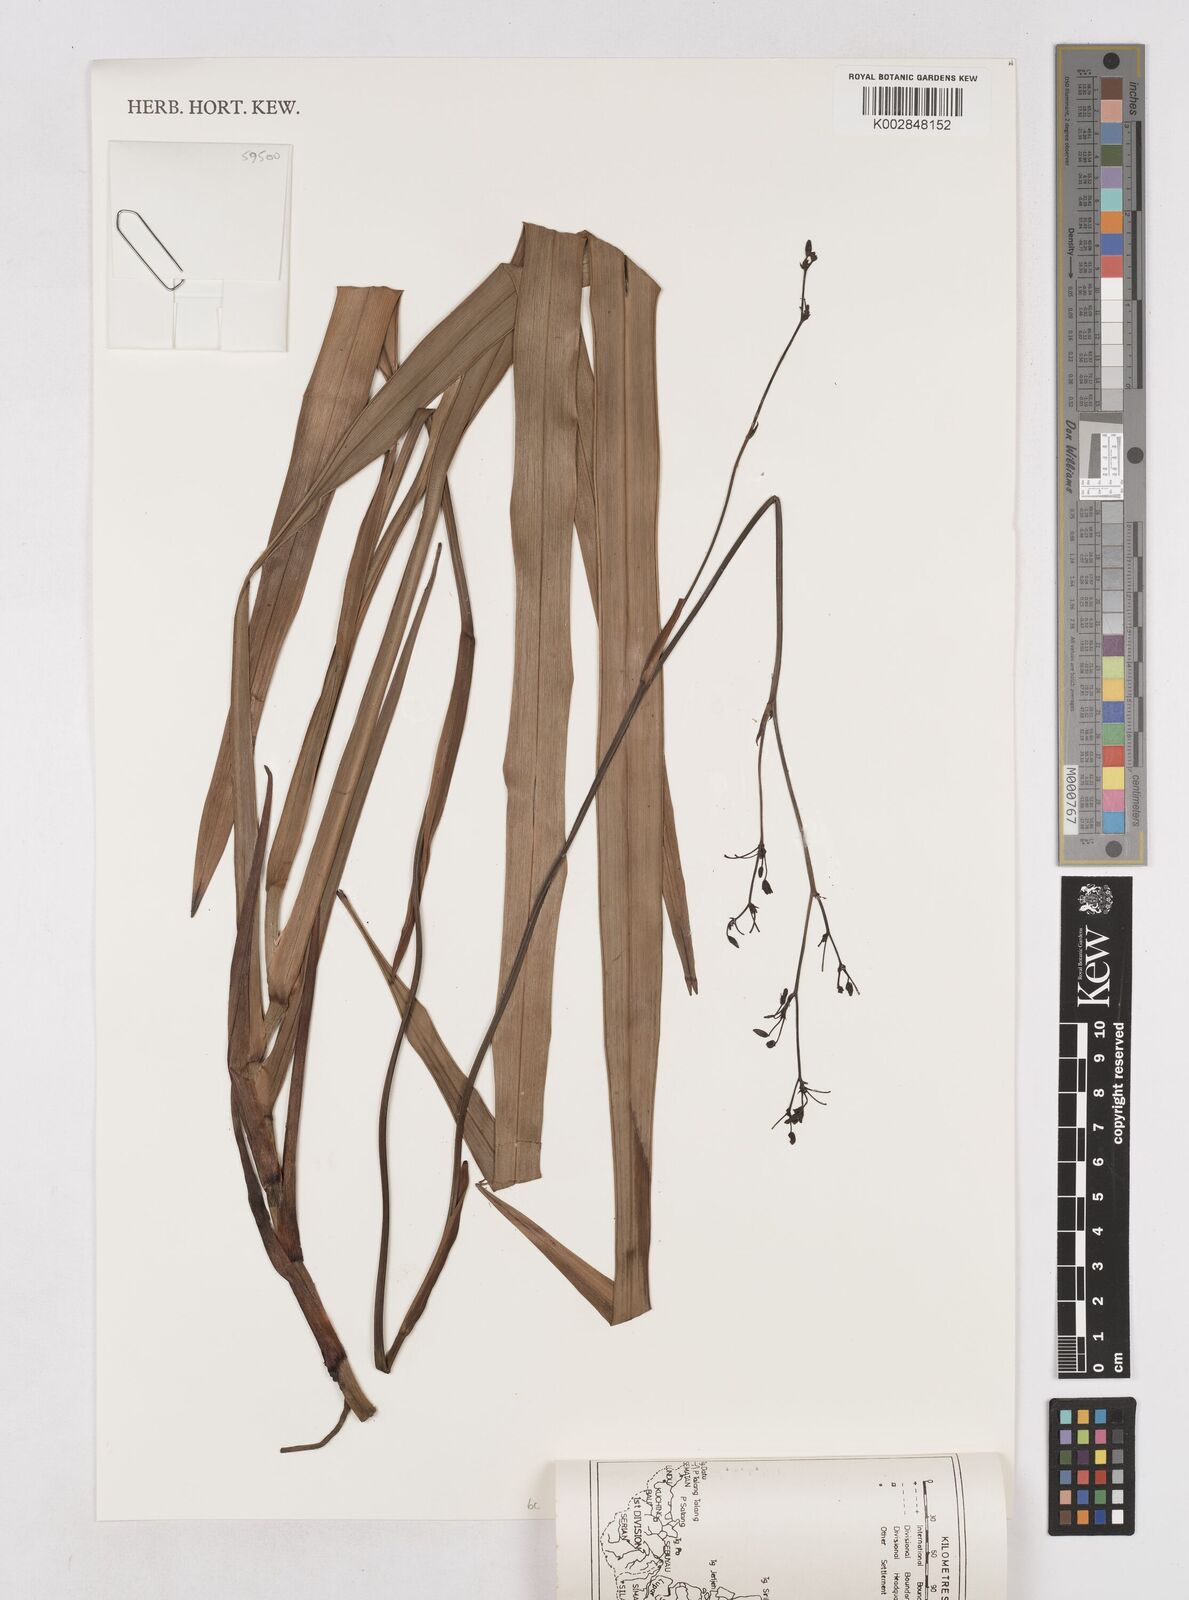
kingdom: Plantae
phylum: Tracheophyta
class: Liliopsida
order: Asparagales
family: Asphodelaceae
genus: Dianella
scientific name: Dianella ensifolia
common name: New zealand lilyplant
